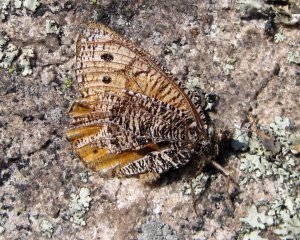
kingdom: Animalia
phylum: Arthropoda
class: Insecta
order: Lepidoptera
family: Nymphalidae
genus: Oeneis
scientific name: Oeneis chryxus
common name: Chryxus Arctic
